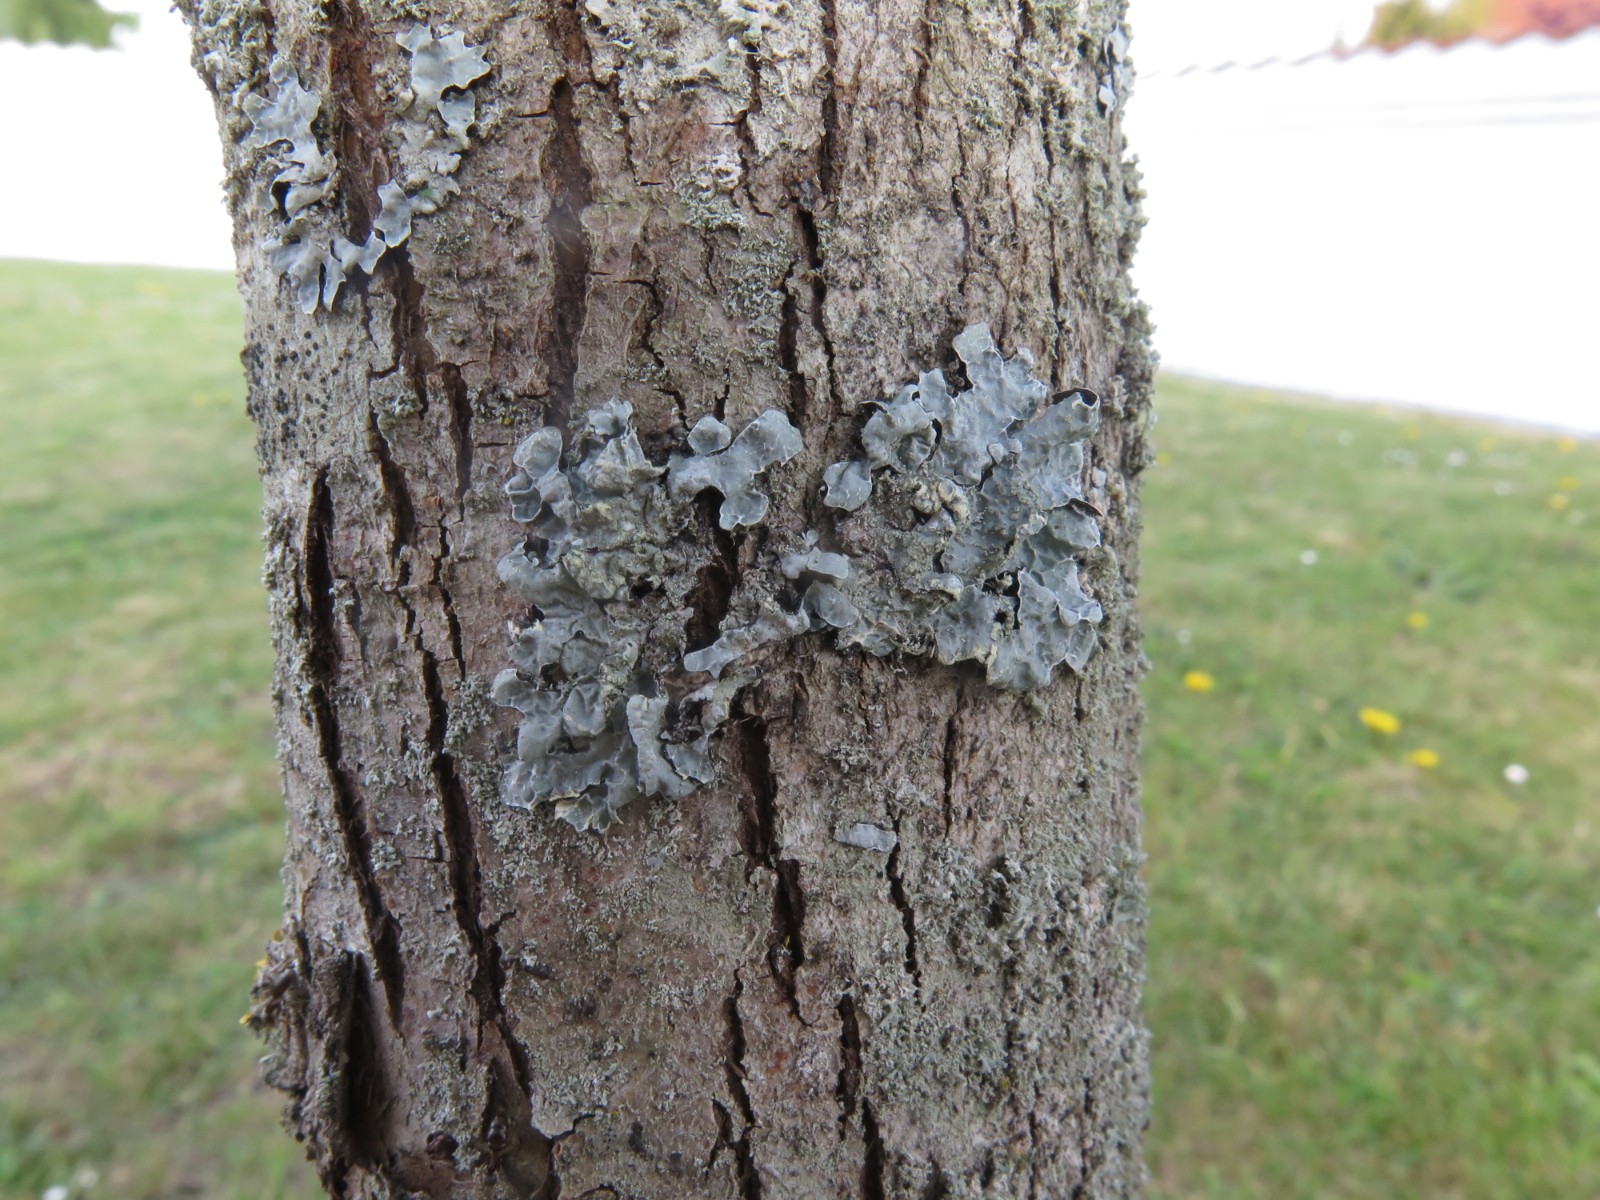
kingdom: Fungi
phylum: Ascomycota
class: Lecanoromycetes
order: Lecanorales
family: Parmeliaceae
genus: Parmelia
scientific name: Parmelia sulcata
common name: rynket skållav
